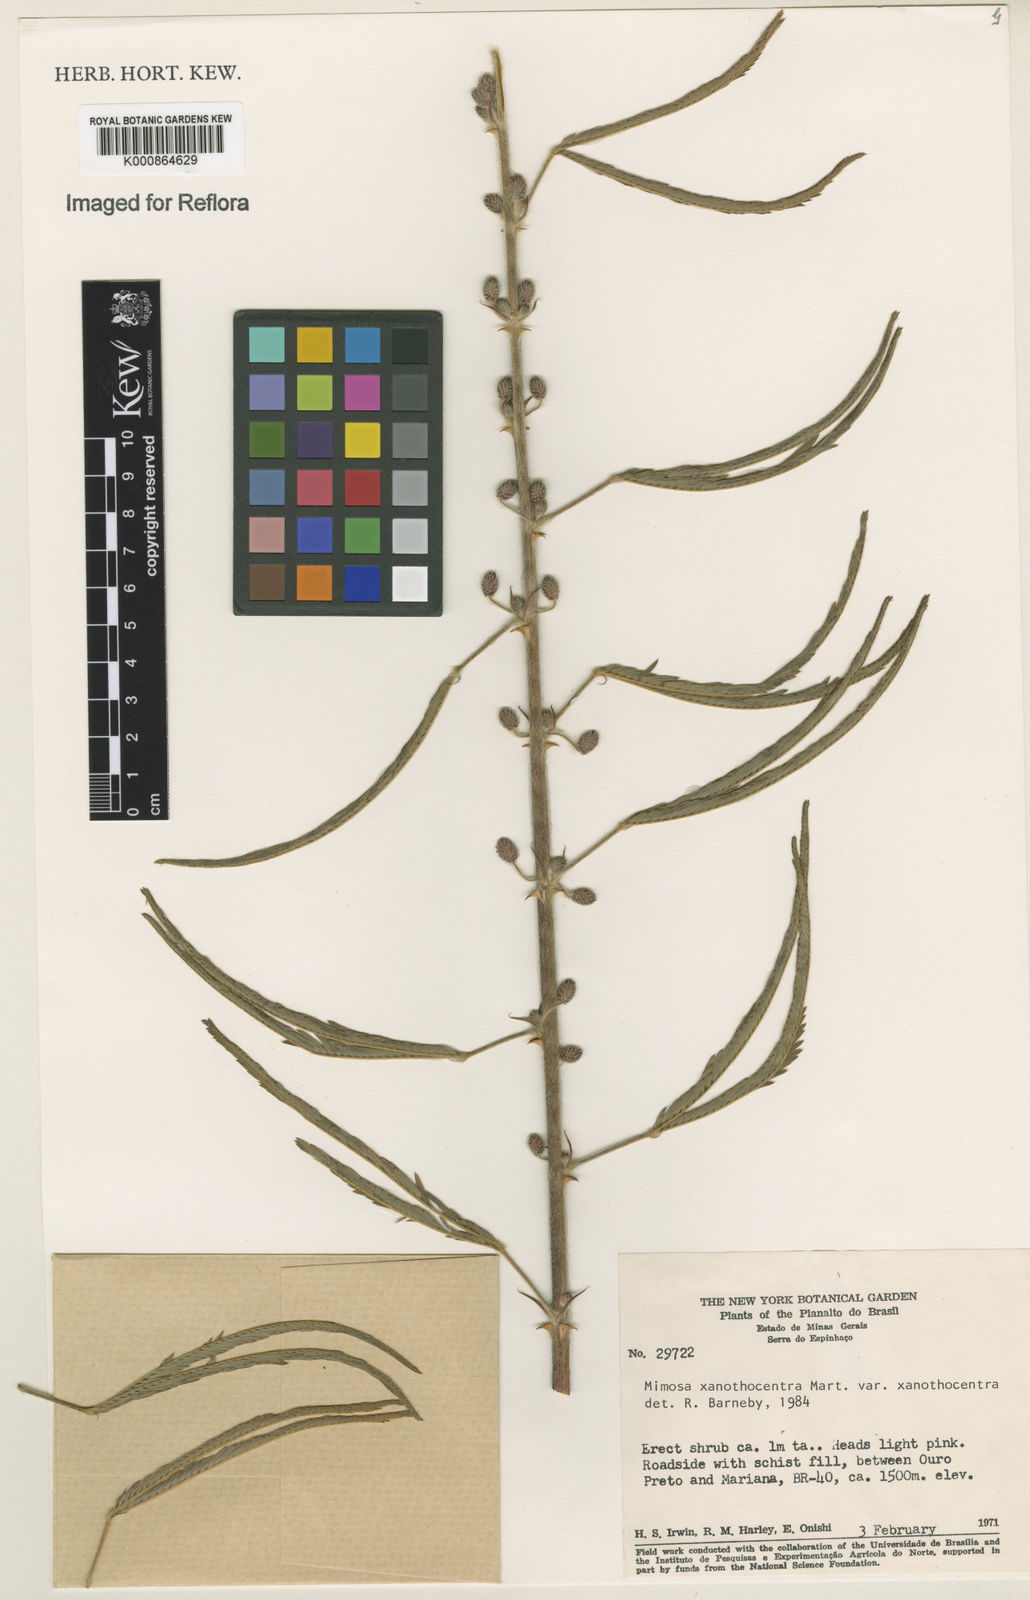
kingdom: Plantae
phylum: Tracheophyta
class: Magnoliopsida
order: Fabales
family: Fabaceae
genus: Mimosa
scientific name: Mimosa xanthocentra
